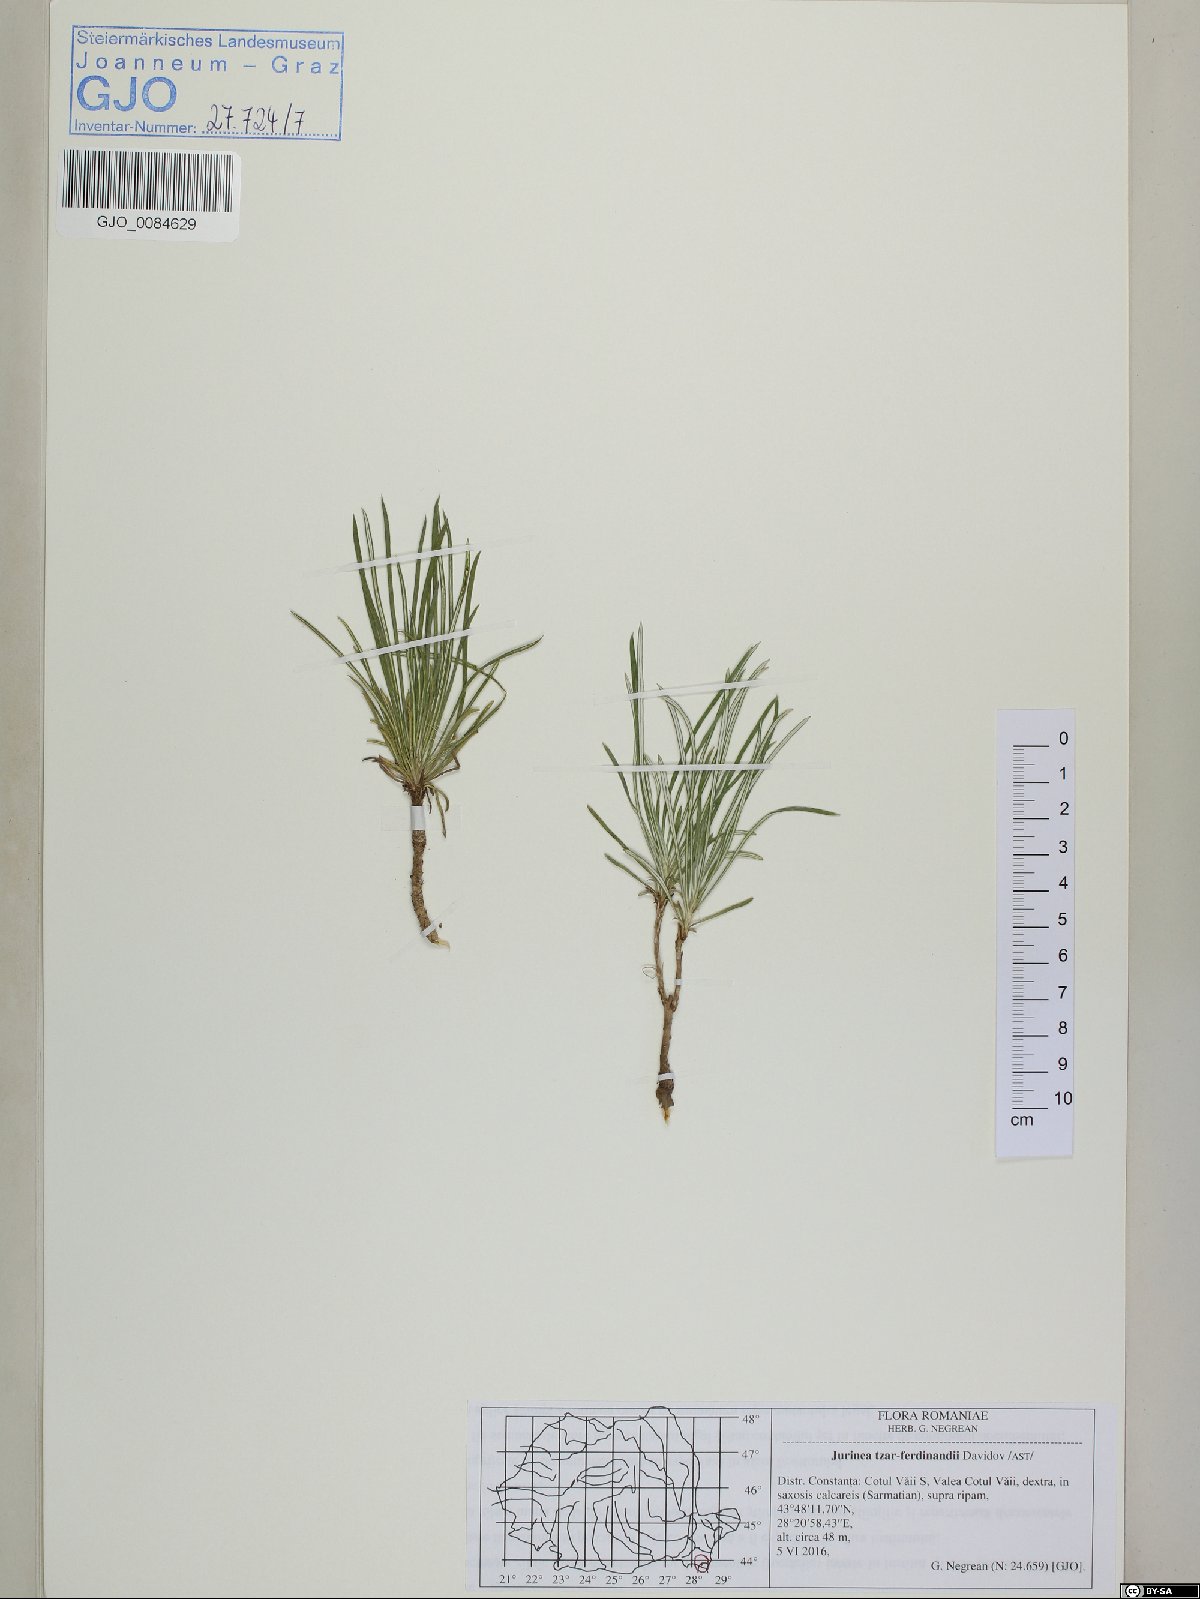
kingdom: Plantae
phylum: Tracheophyta
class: Magnoliopsida
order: Asterales
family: Asteraceae
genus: Jurinea
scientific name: Jurinea tzar-ferdinandii
